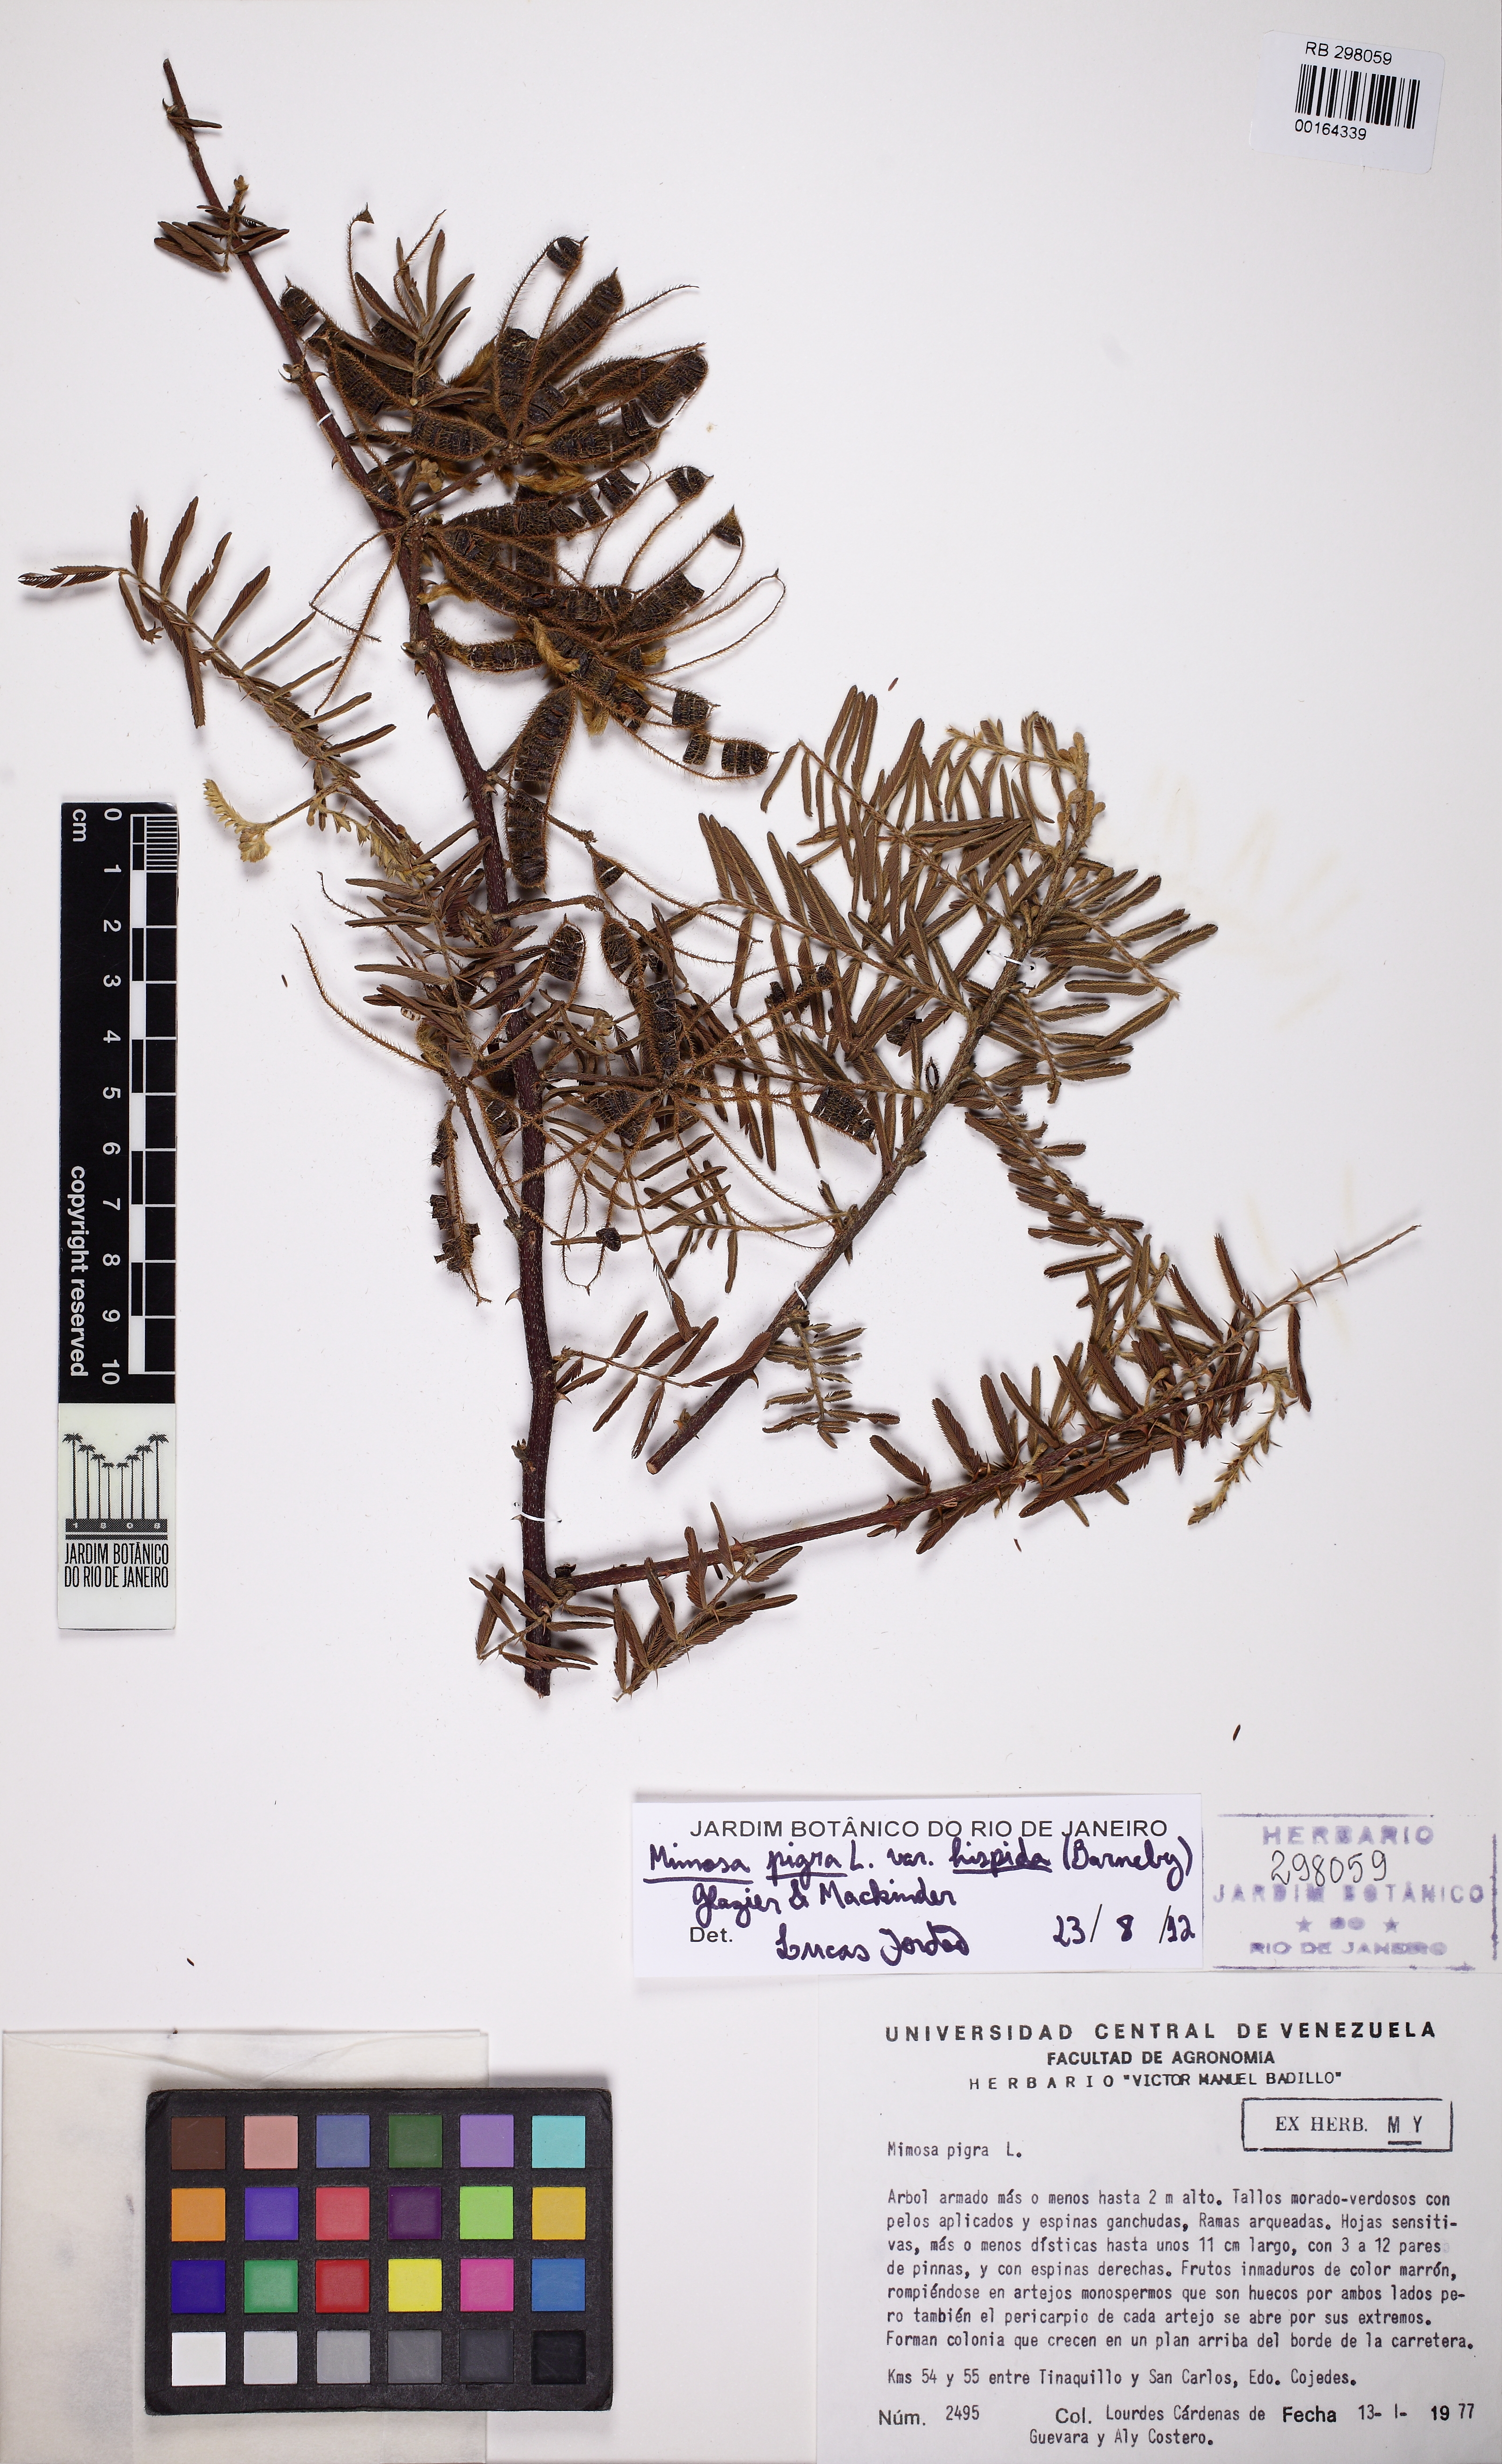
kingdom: Plantae
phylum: Tracheophyta
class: Magnoliopsida
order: Fabales
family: Fabaceae
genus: Mimosa
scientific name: Mimosa pigra
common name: Black mimosa
